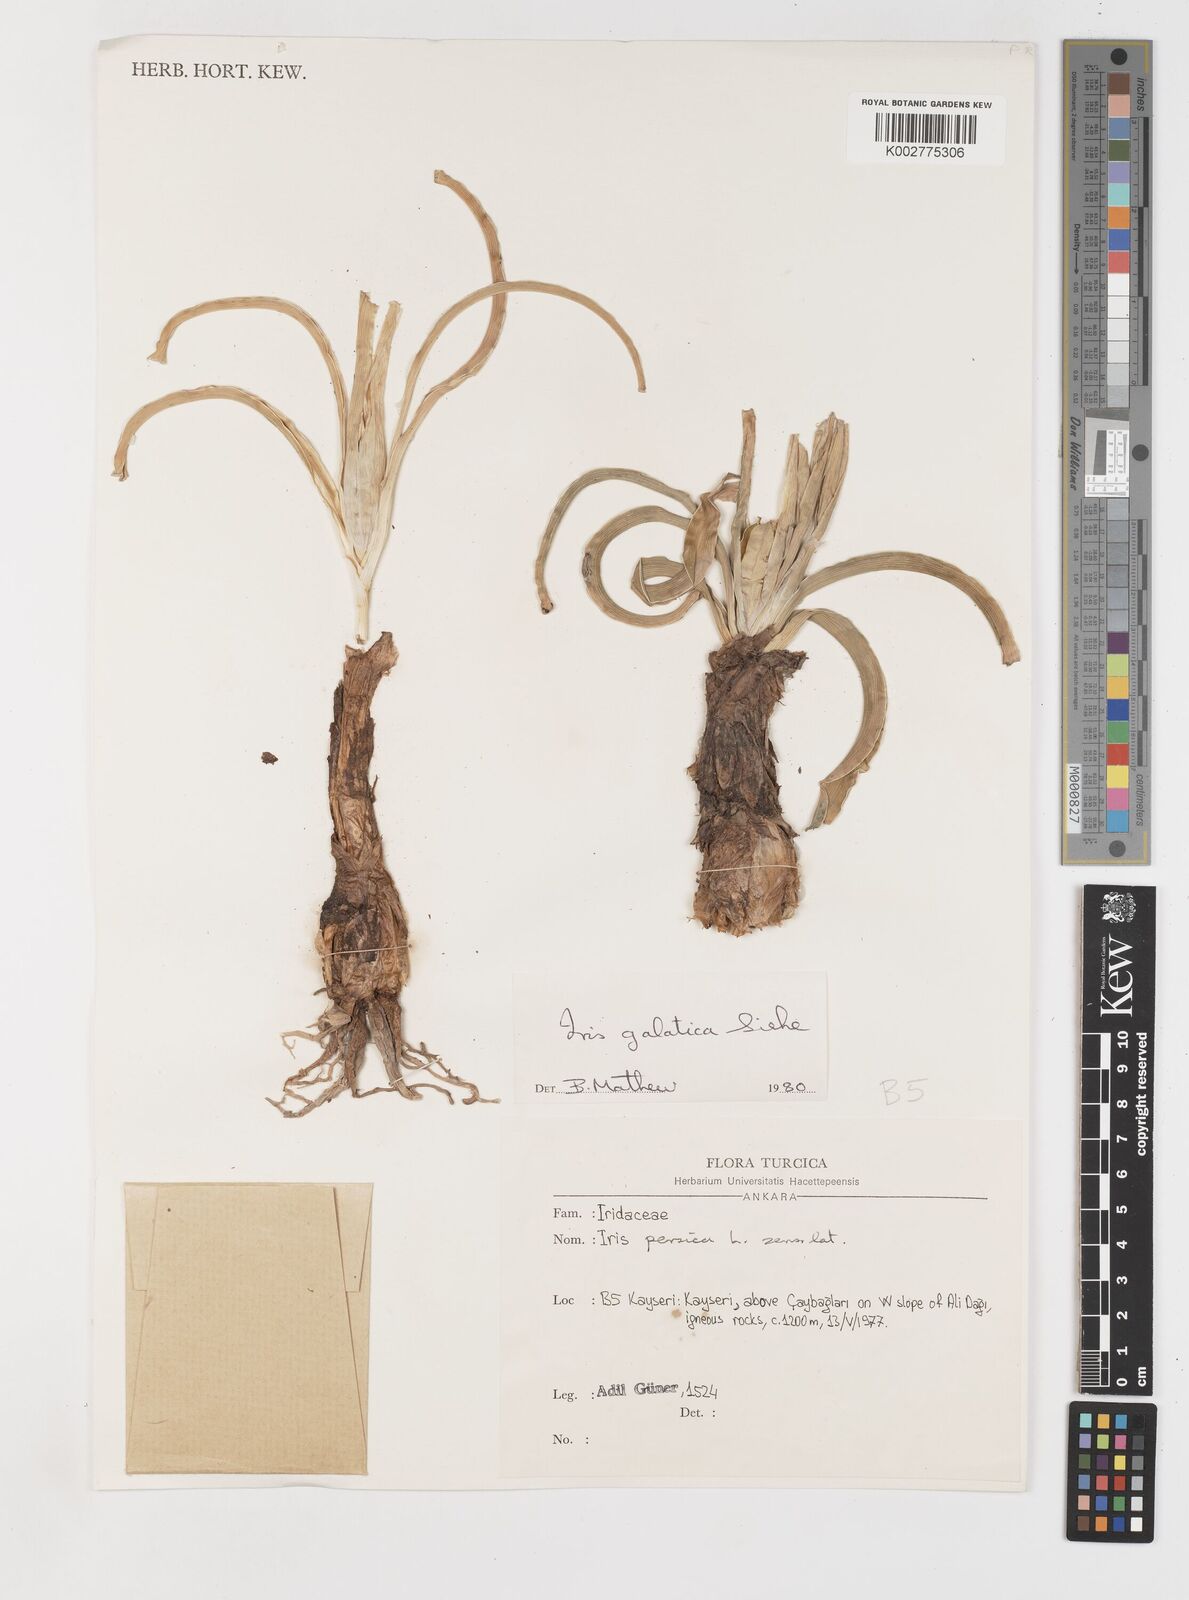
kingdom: Plantae
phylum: Tracheophyta
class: Liliopsida
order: Asparagales
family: Iridaceae
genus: Iris
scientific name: Iris
